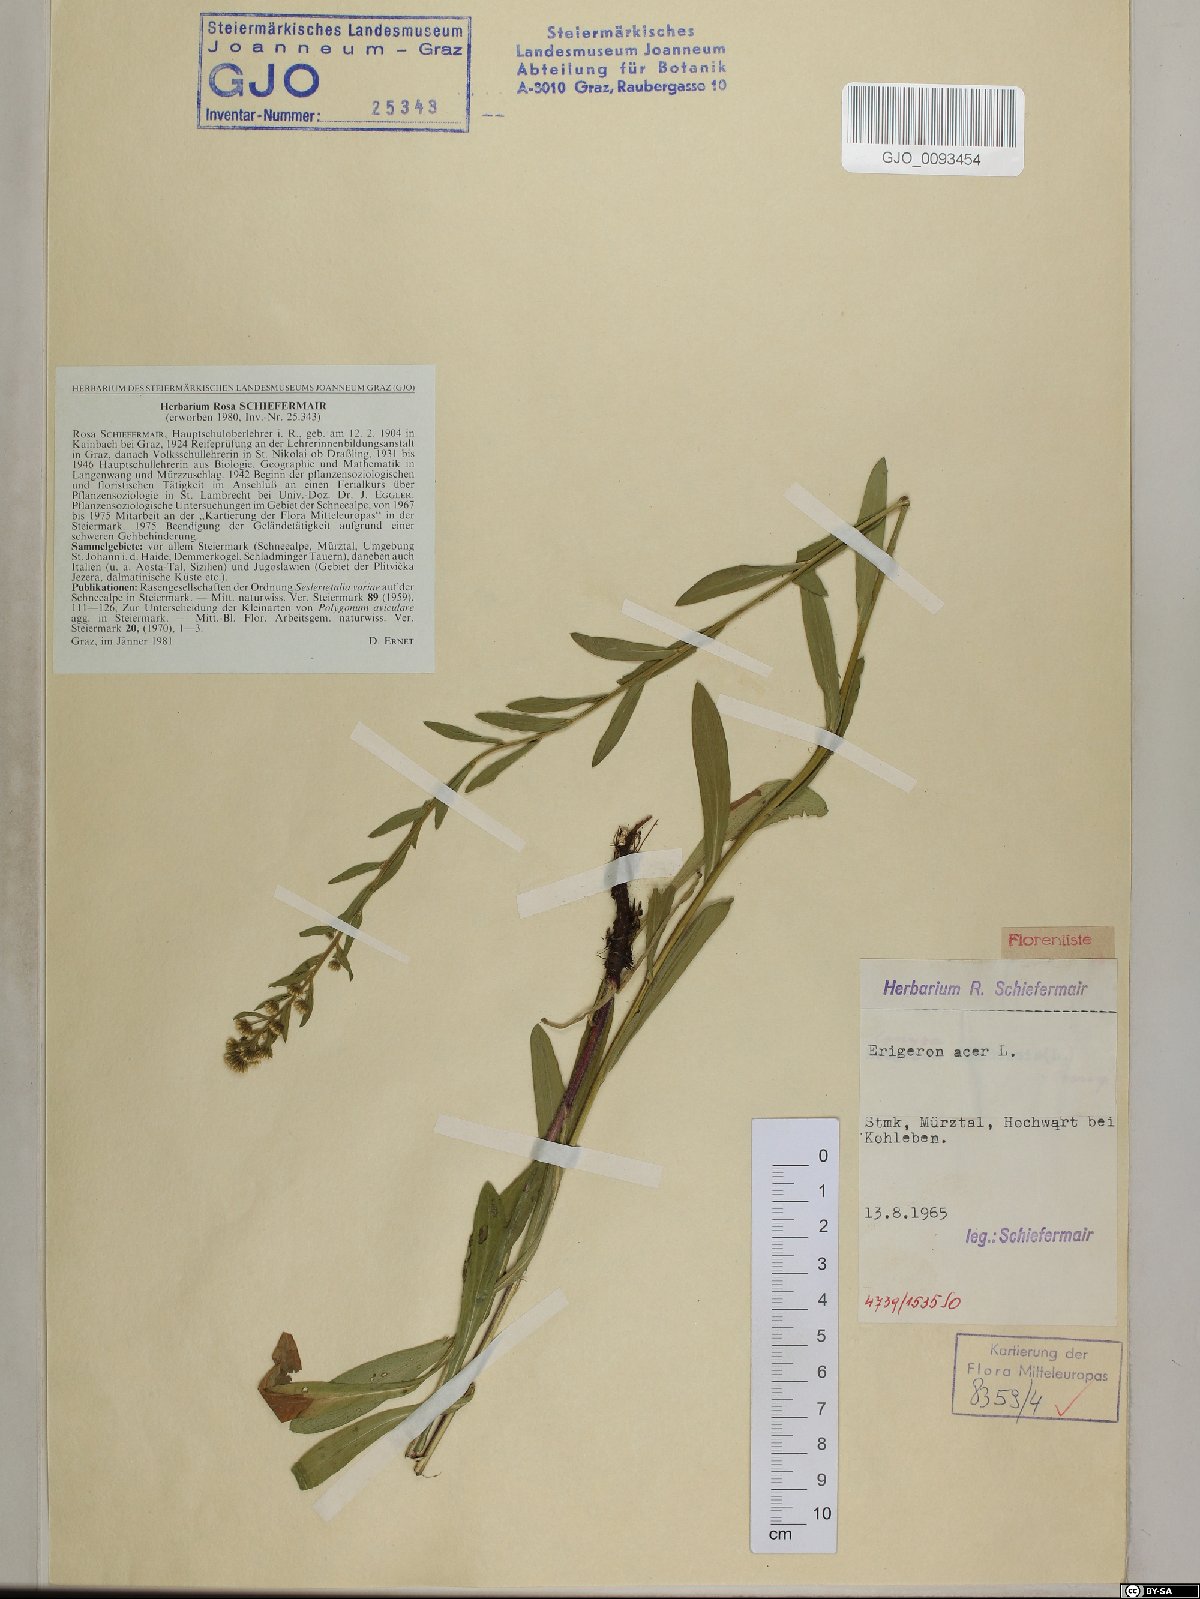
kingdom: Plantae
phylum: Tracheophyta
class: Magnoliopsida
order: Asterales
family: Asteraceae
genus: Erigeron
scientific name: Erigeron acris
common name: Blue fleabane
